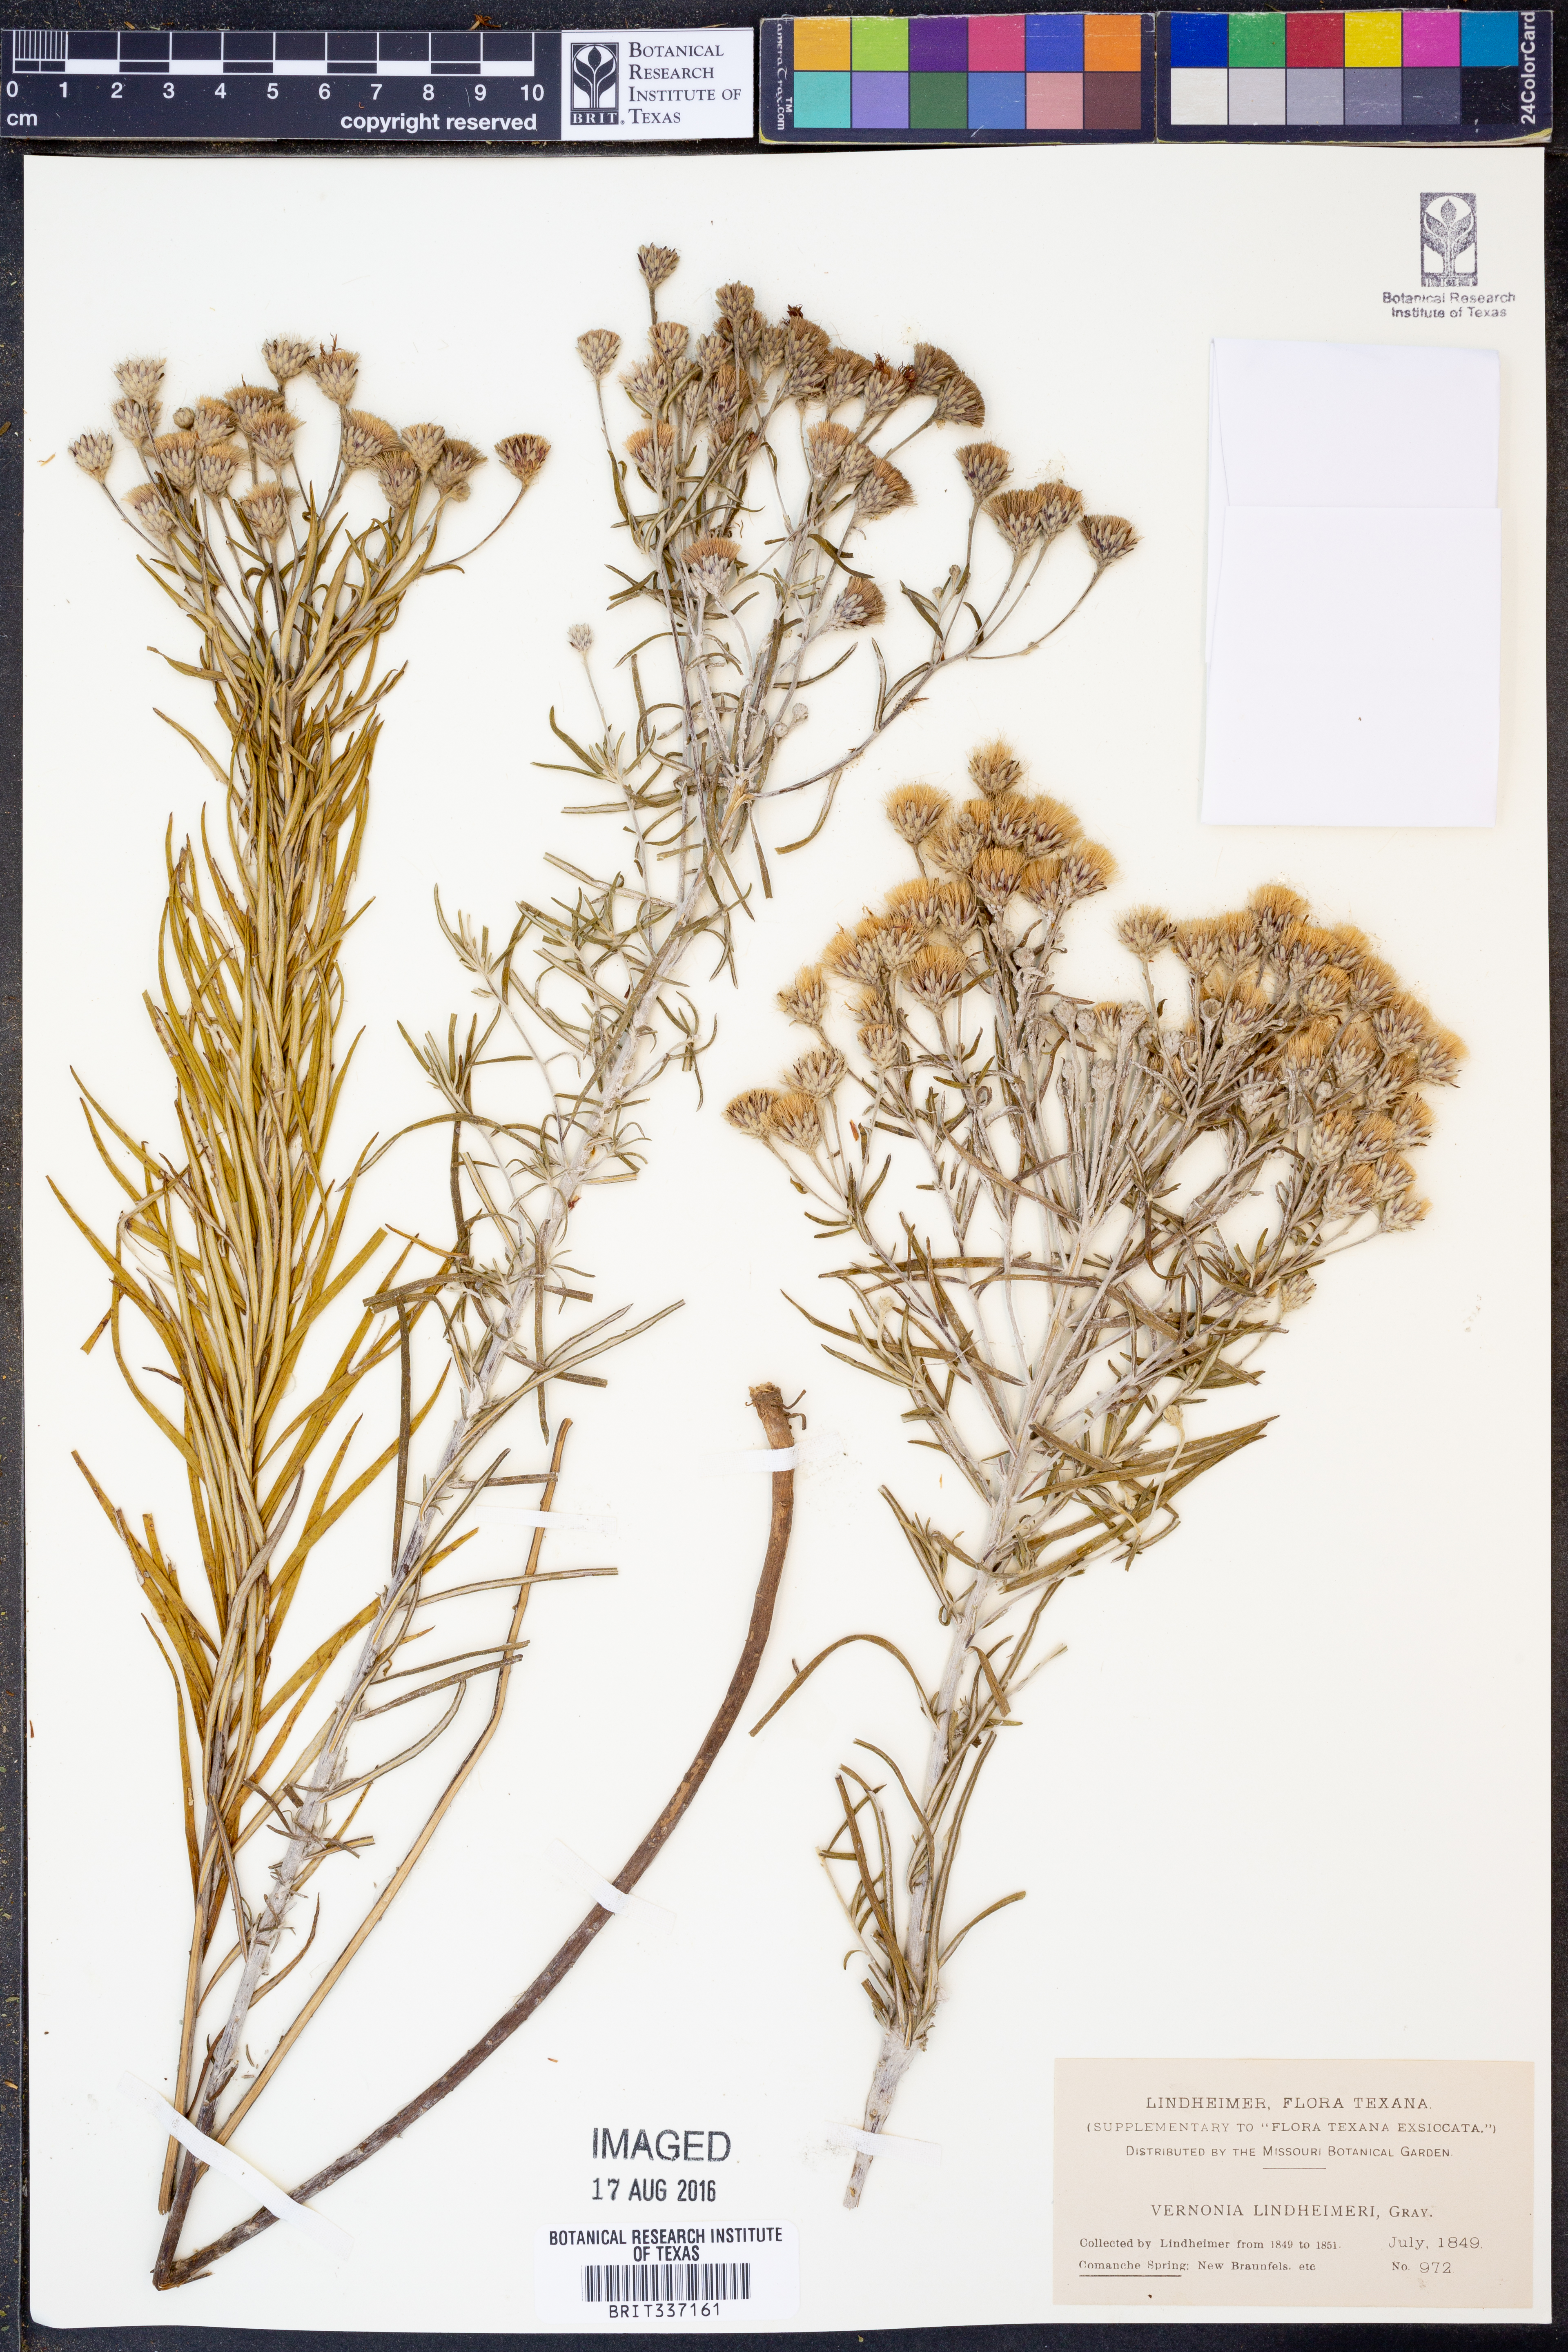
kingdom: Plantae
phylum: Tracheophyta
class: Magnoliopsida
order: Asterales
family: Asteraceae
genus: Vernonia
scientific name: Vernonia lindheimeri
